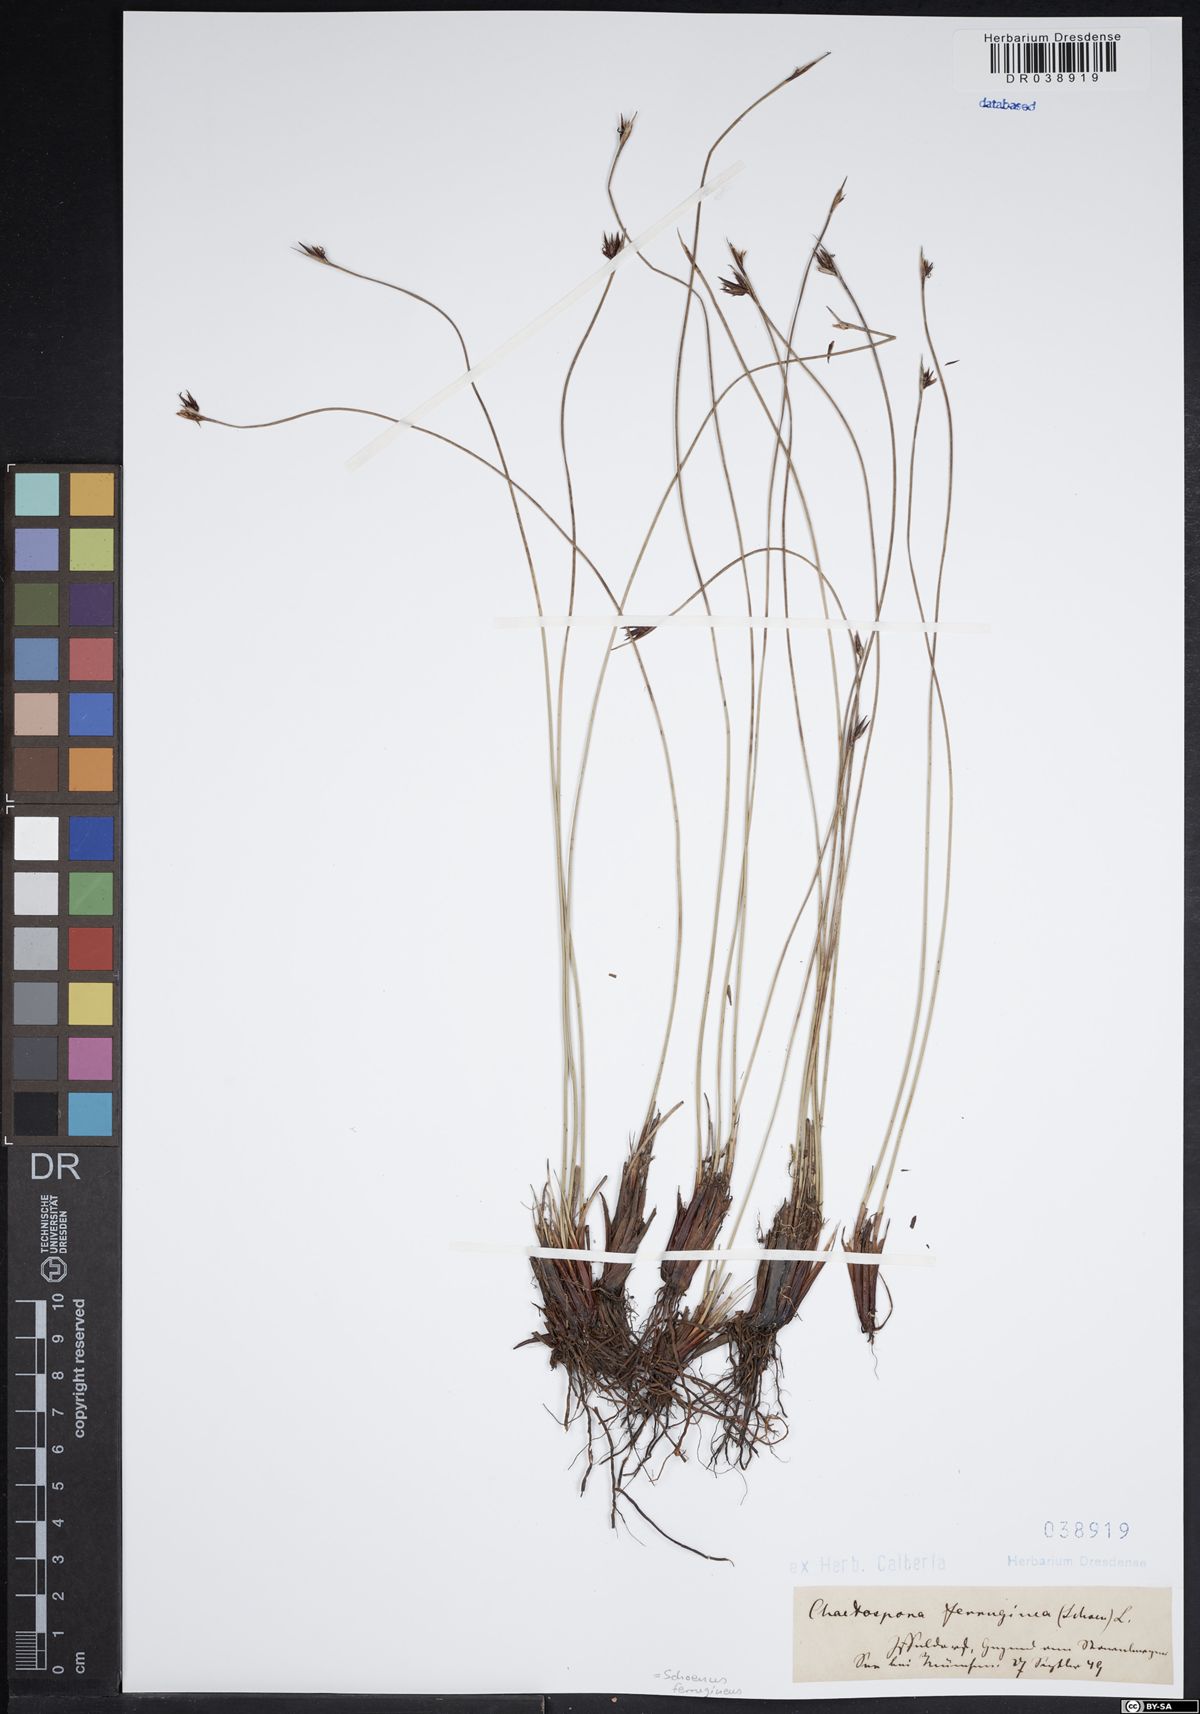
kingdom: Plantae
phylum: Tracheophyta
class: Liliopsida
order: Poales
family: Cyperaceae
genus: Schoenus
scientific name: Schoenus ferrugineus
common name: Brown bog-rush
